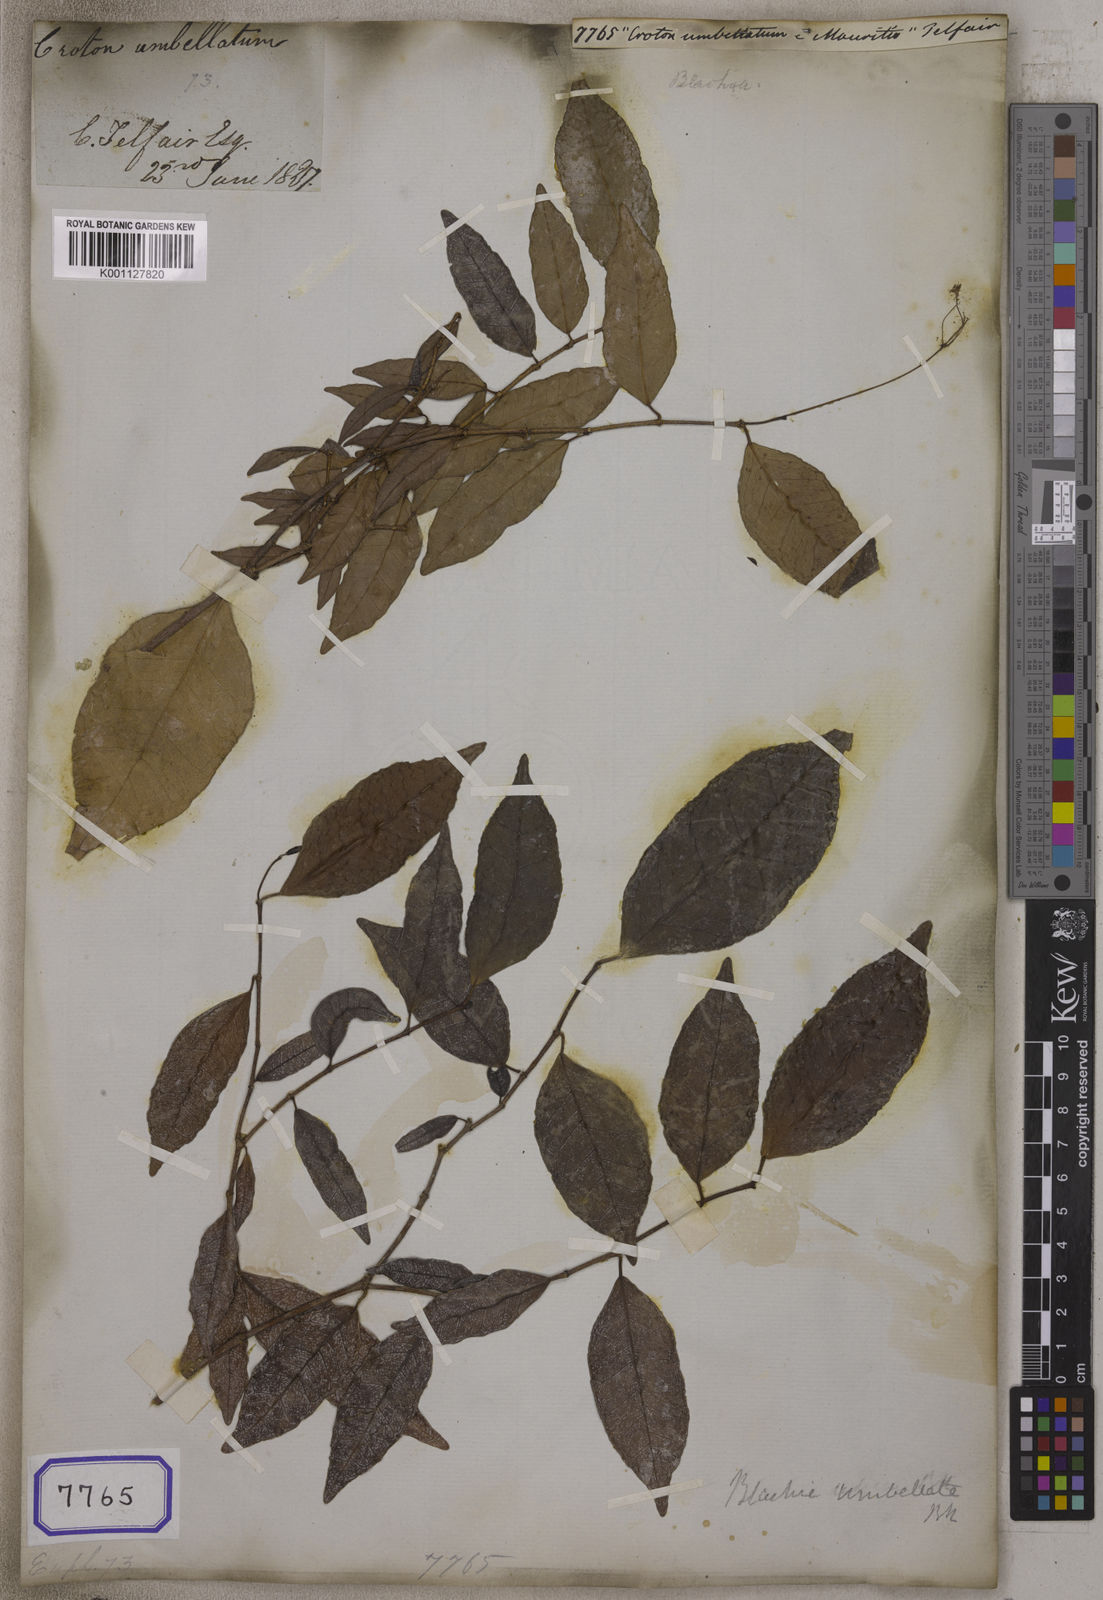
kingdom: Plantae
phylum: Tracheophyta
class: Magnoliopsida
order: Malpighiales
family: Euphorbiaceae
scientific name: Euphorbiaceae
